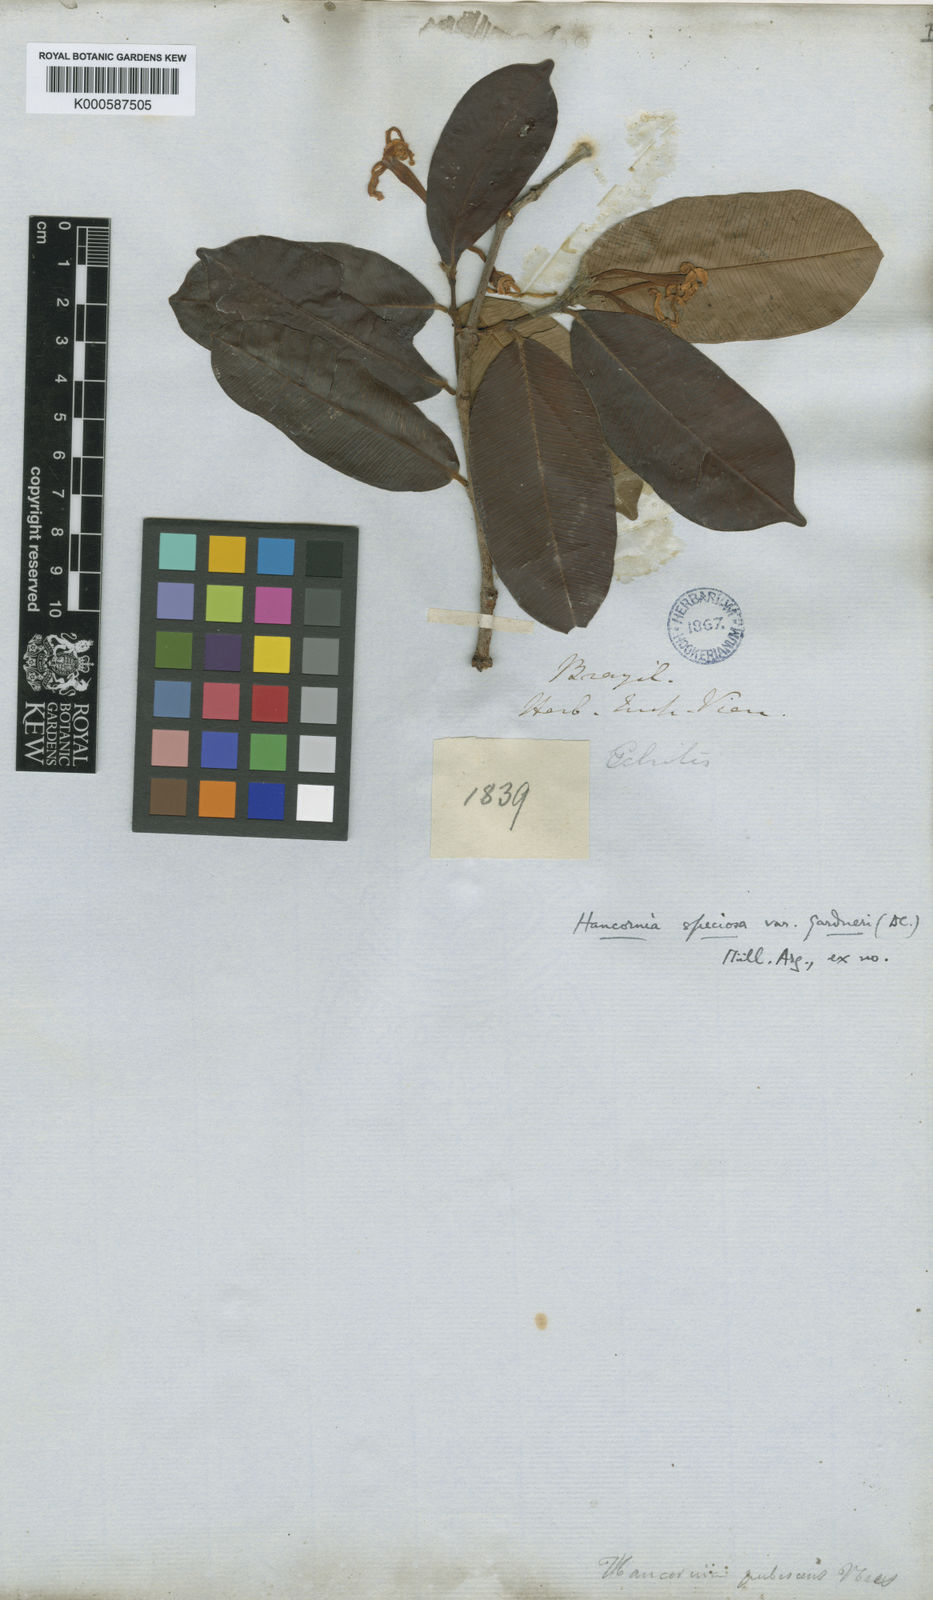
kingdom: Plantae
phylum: Tracheophyta
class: Magnoliopsida
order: Gentianales
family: Apocynaceae
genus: Hancornia
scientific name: Hancornia speciosa
